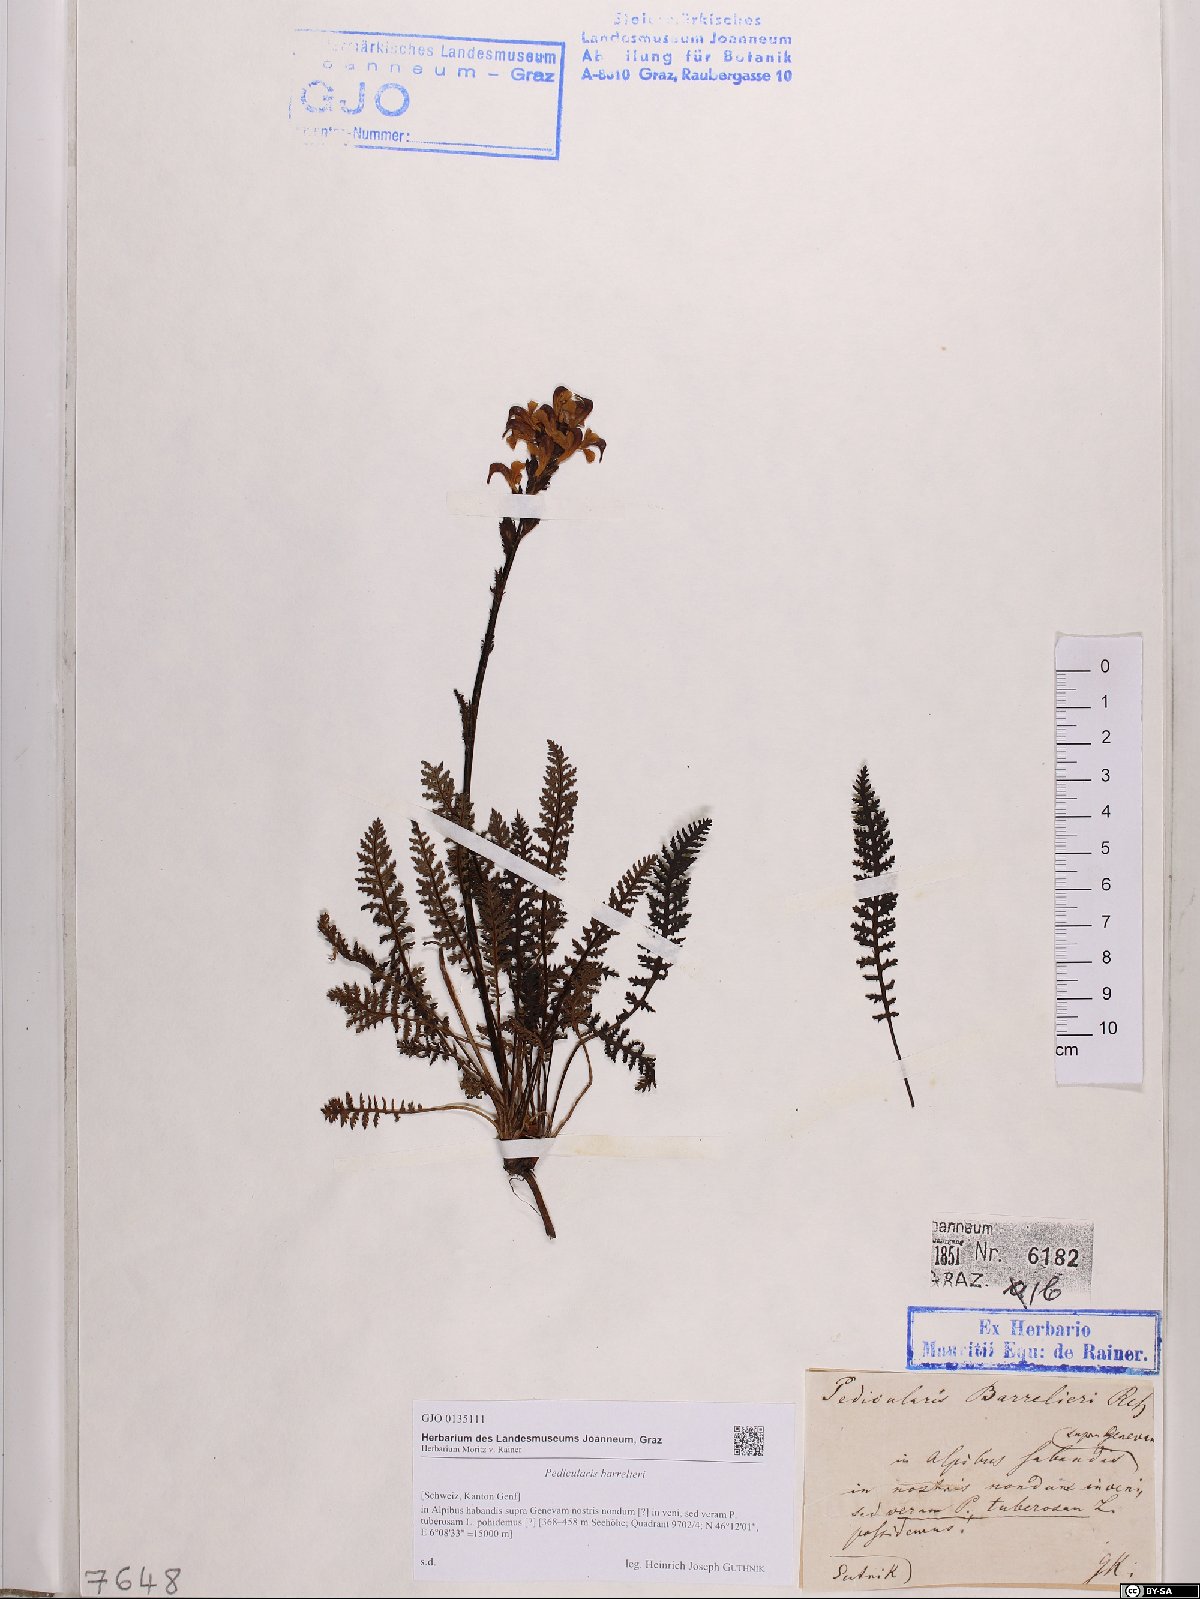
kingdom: Plantae
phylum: Tracheophyta
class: Magnoliopsida
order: Lamiales
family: Orobanchaceae
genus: Pedicularis
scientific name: Pedicularis ascendens
